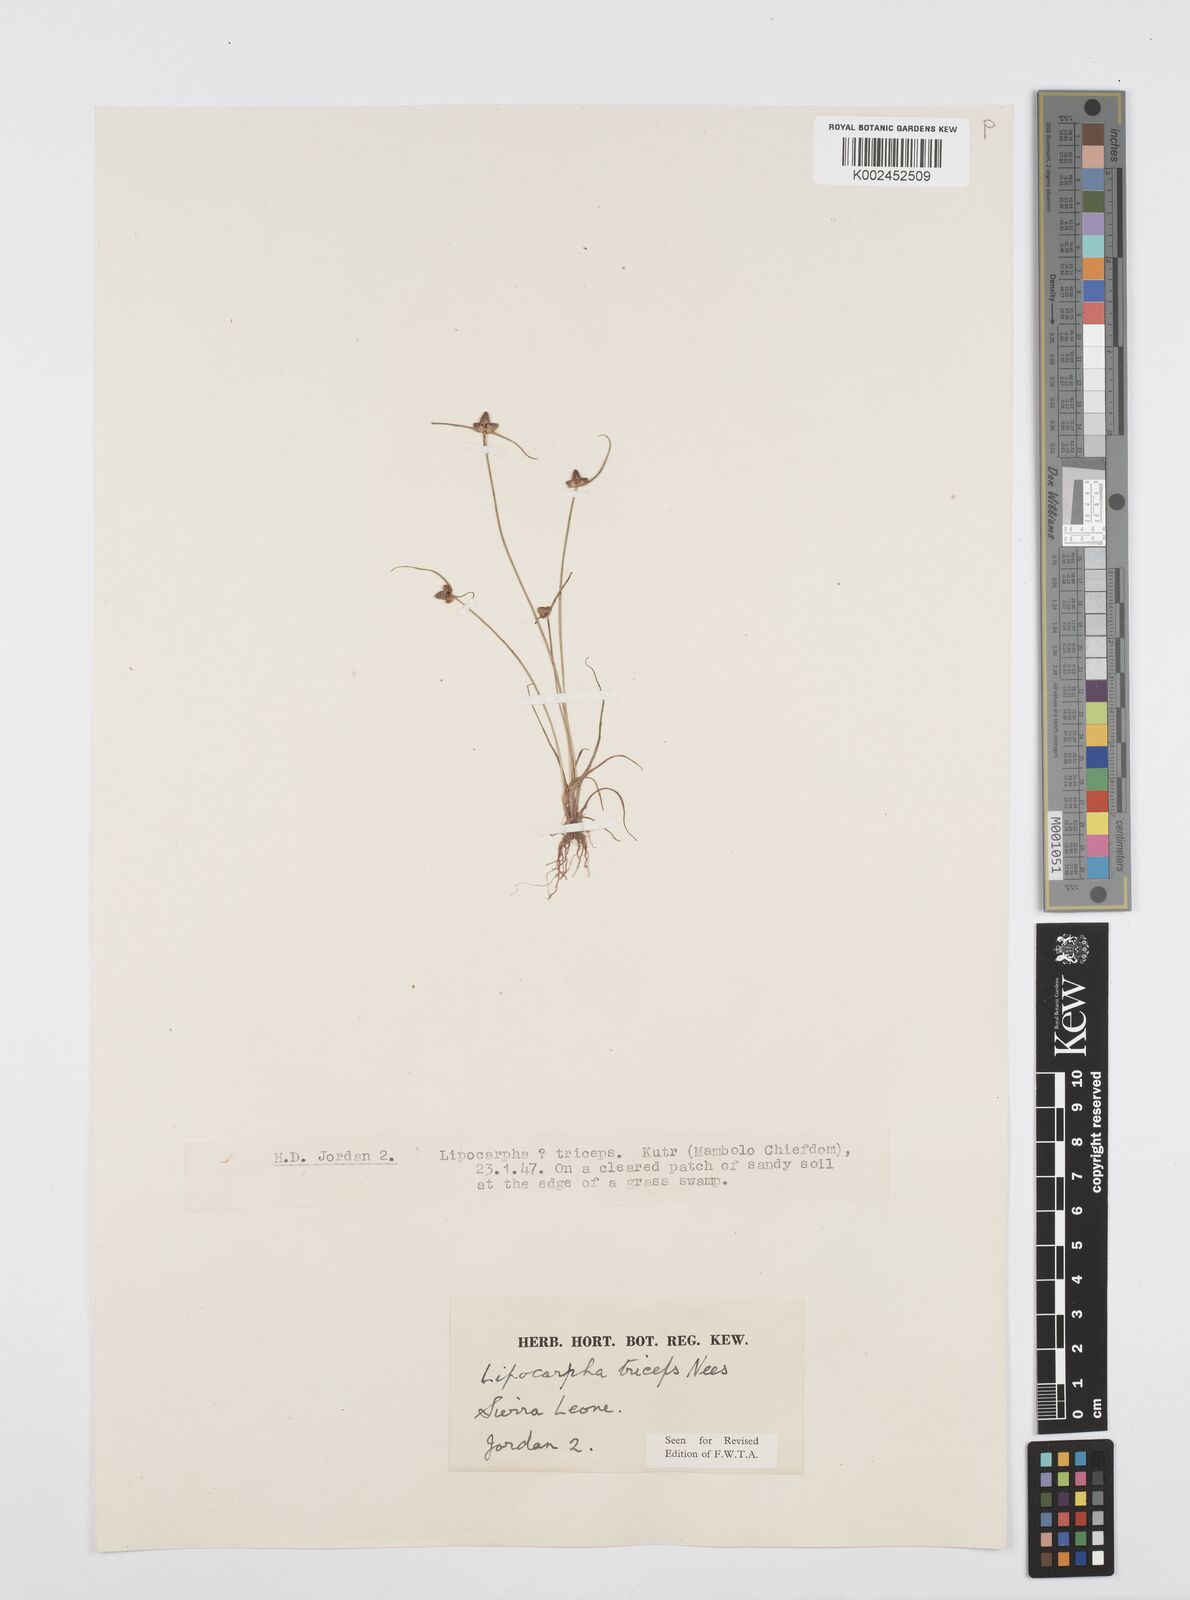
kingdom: Plantae
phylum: Tracheophyta
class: Liliopsida
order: Poales
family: Cyperaceae
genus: Cyperus
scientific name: Cyperus filiformis
